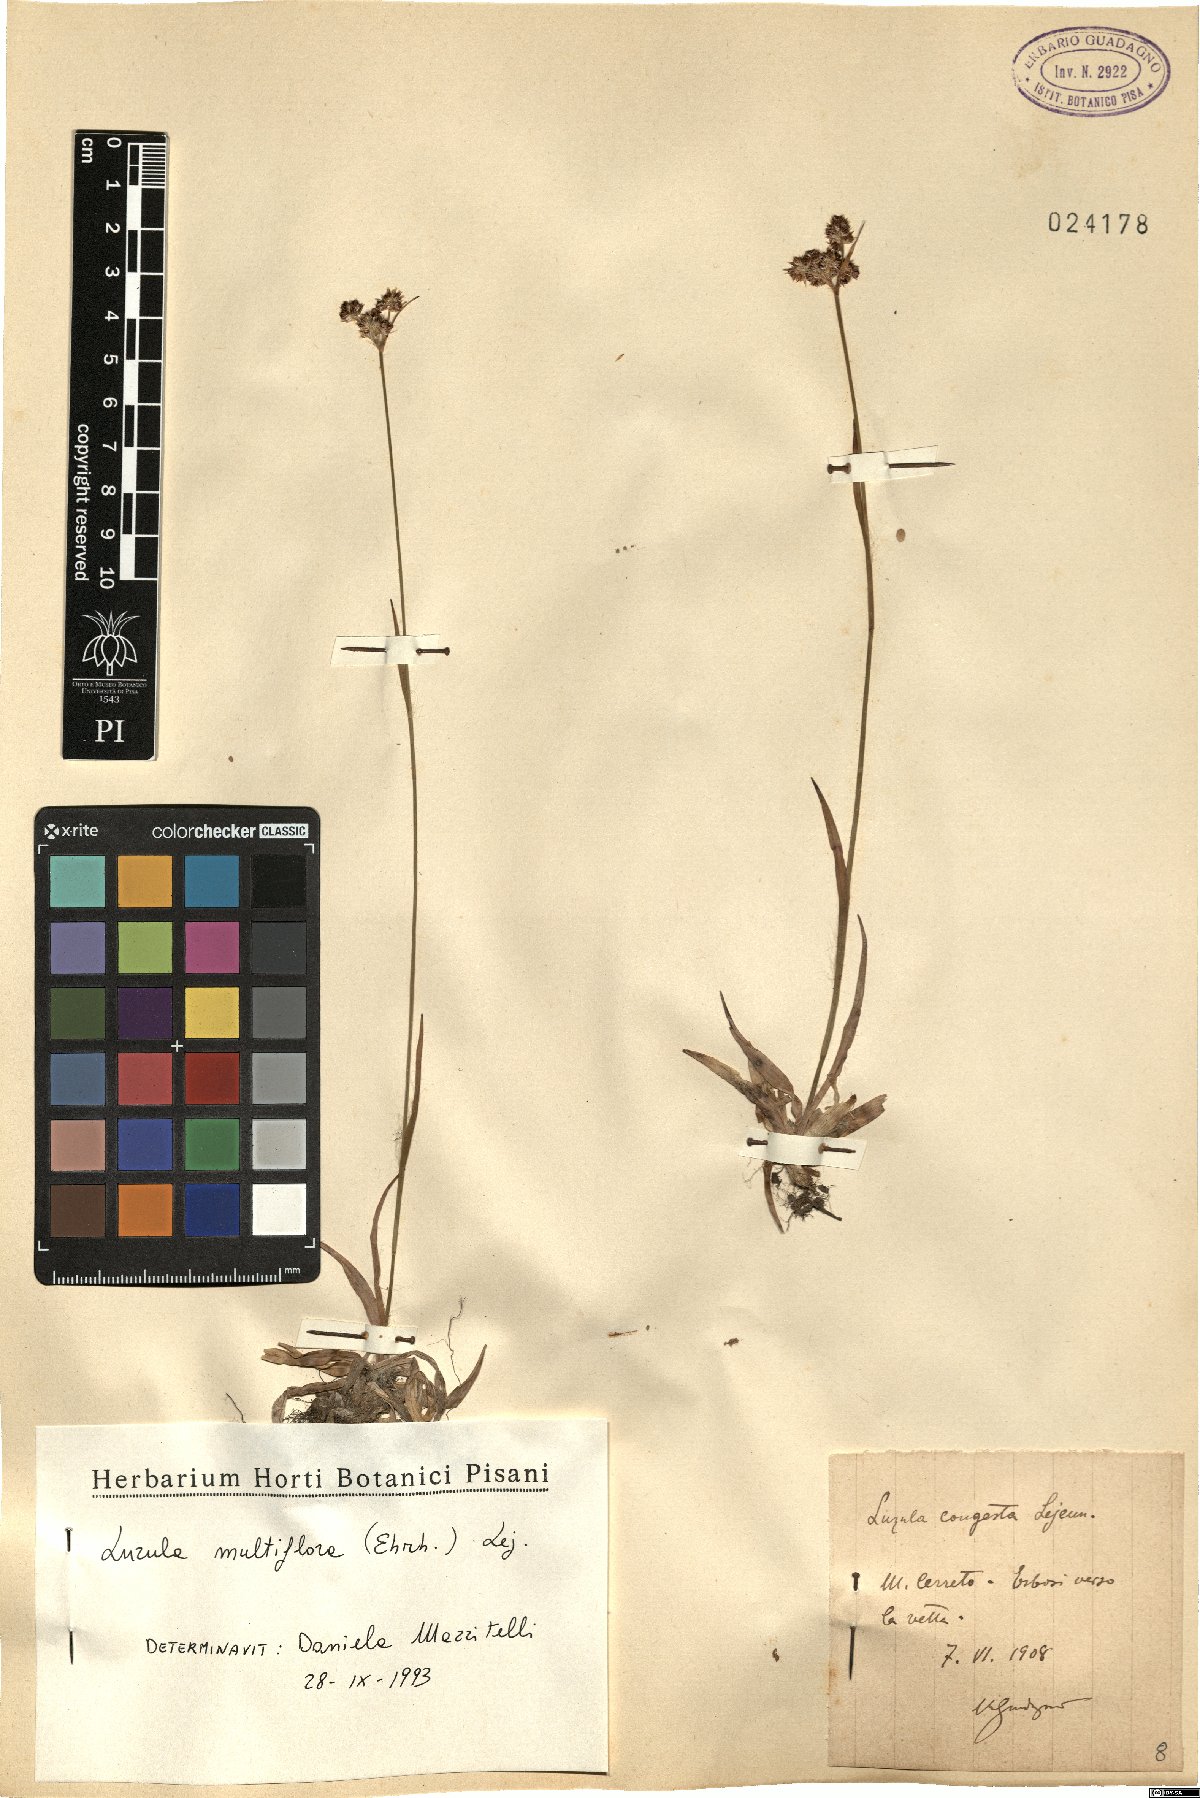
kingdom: Plantae
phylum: Tracheophyta
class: Liliopsida
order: Poales
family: Juncaceae
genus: Luzula
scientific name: Luzula multiflora
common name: Heath wood-rush
